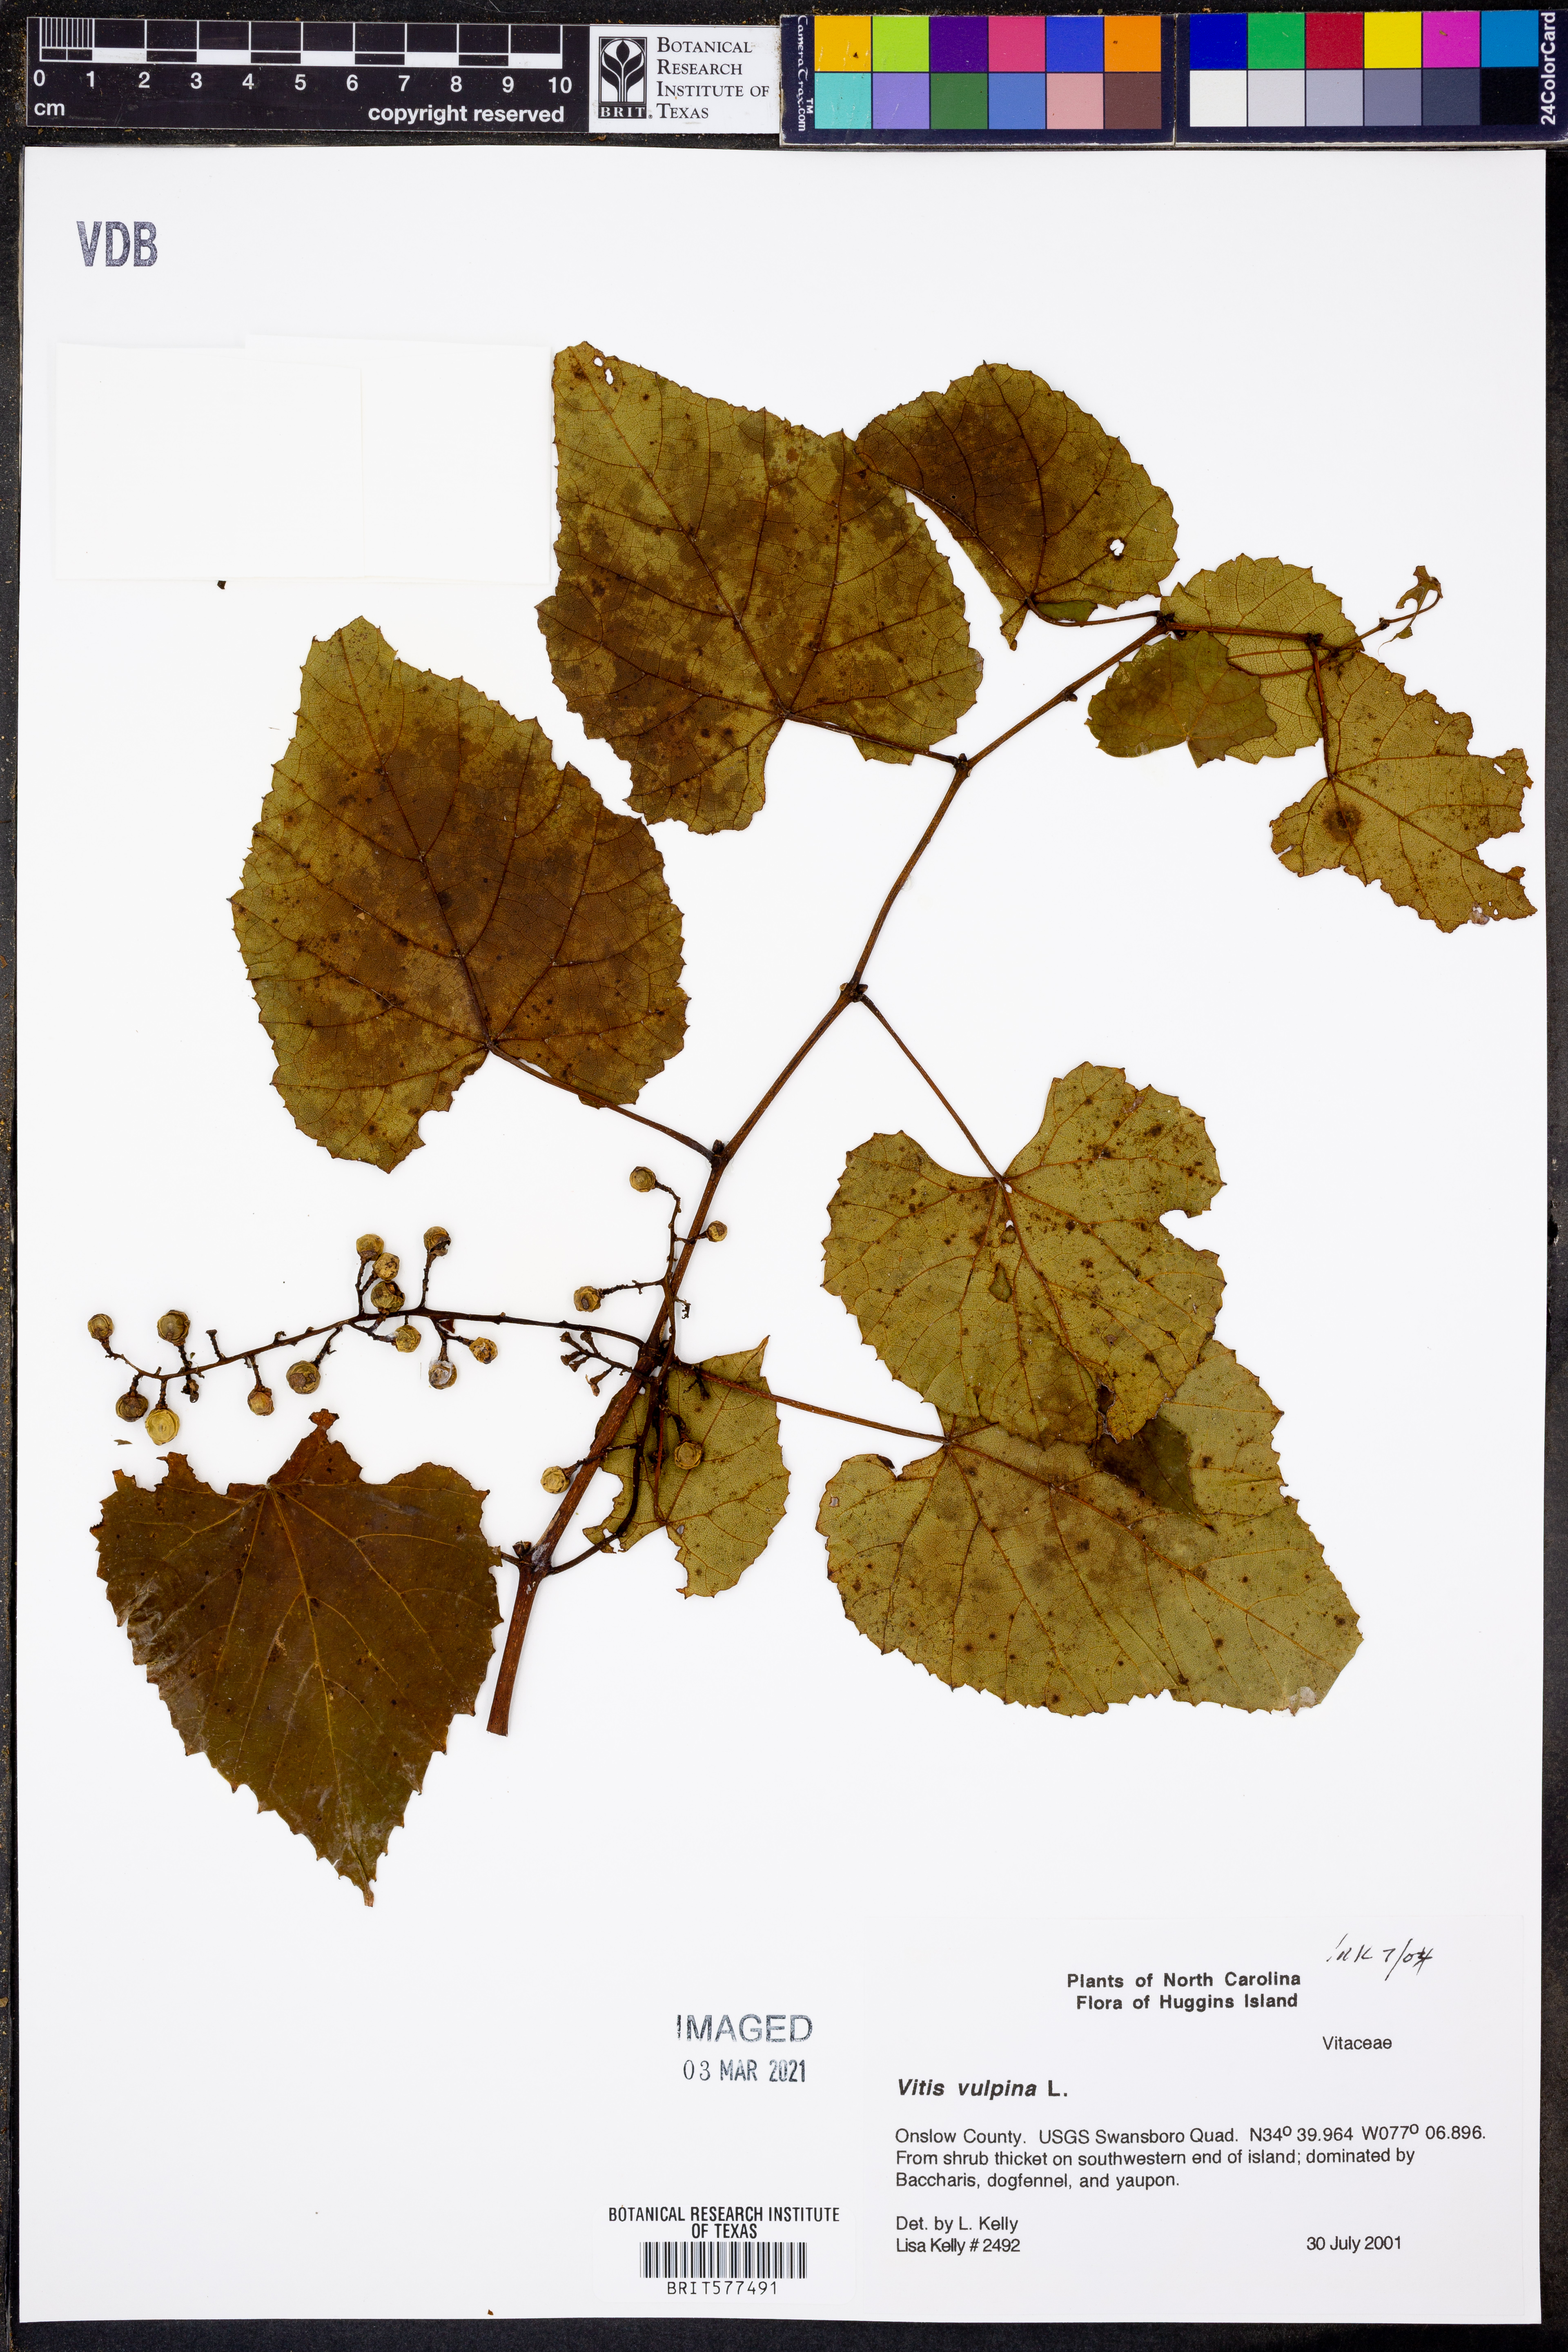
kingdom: Plantae
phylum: Tracheophyta
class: Magnoliopsida
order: Vitales
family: Vitaceae
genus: Vitis
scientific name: Vitis vulpina
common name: Frost grape
